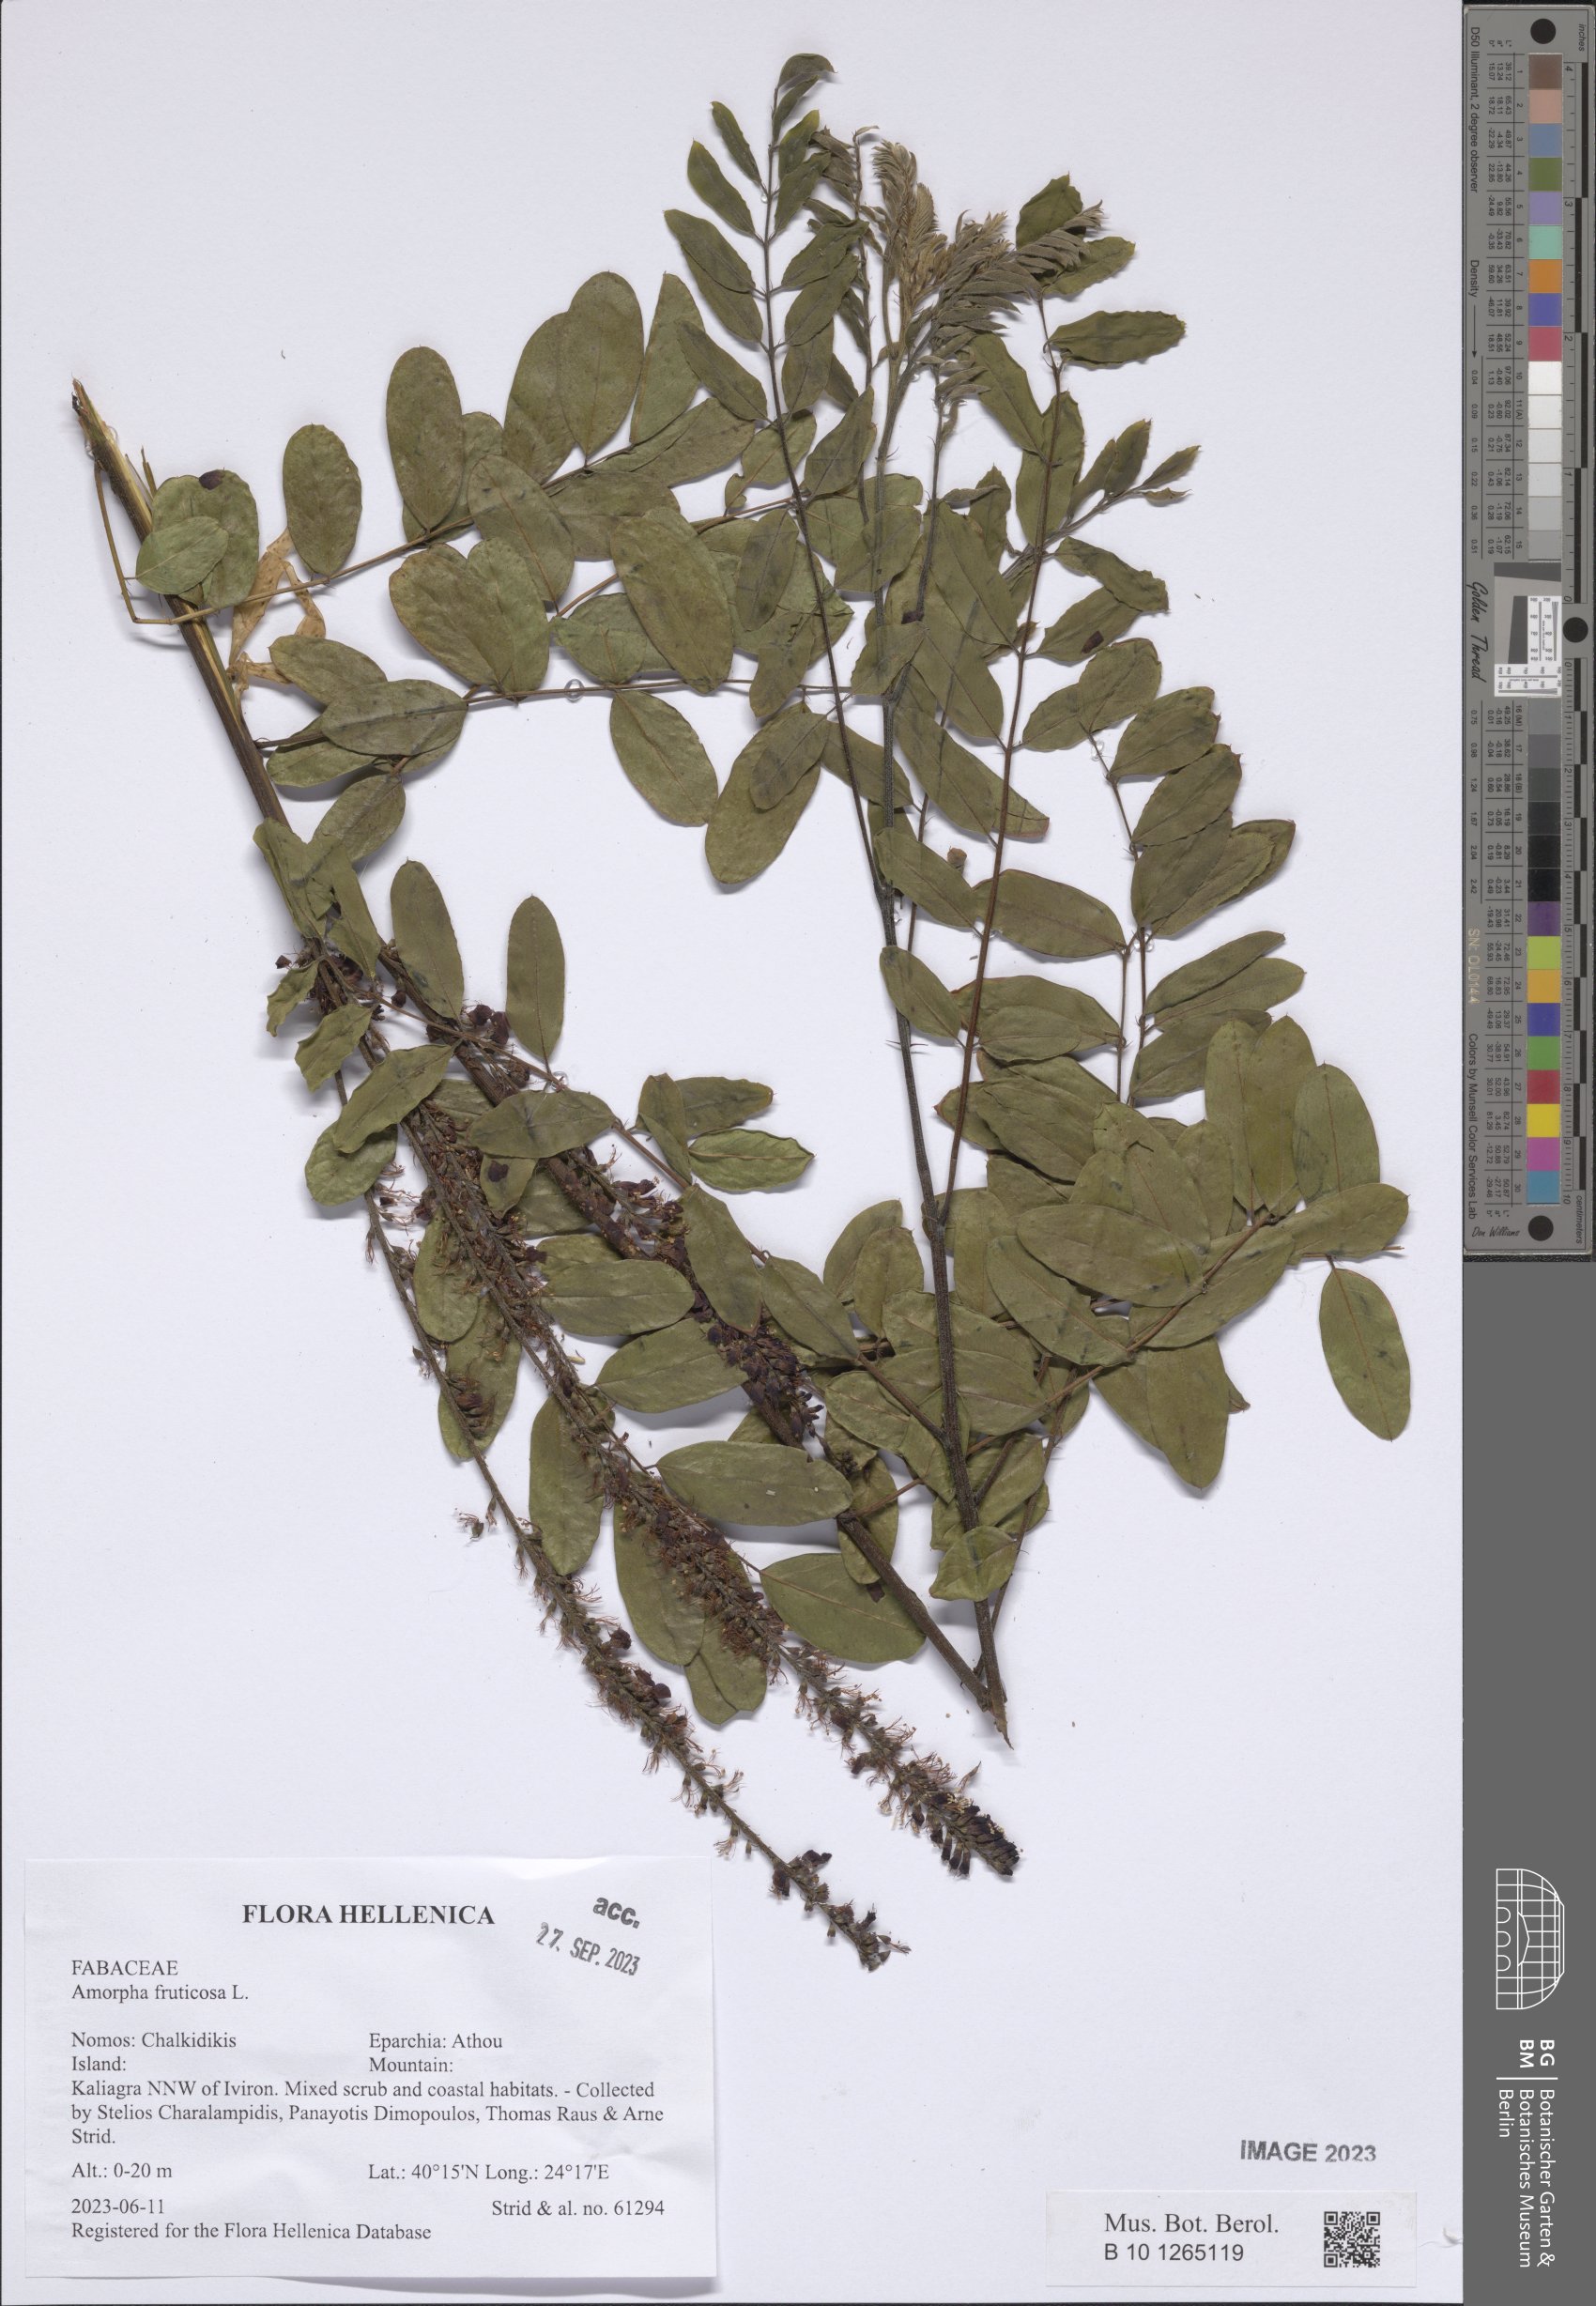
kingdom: Plantae
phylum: Tracheophyta
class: Magnoliopsida
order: Fabales
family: Fabaceae
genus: Amorpha
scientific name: Amorpha fruticosa
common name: False indigo
